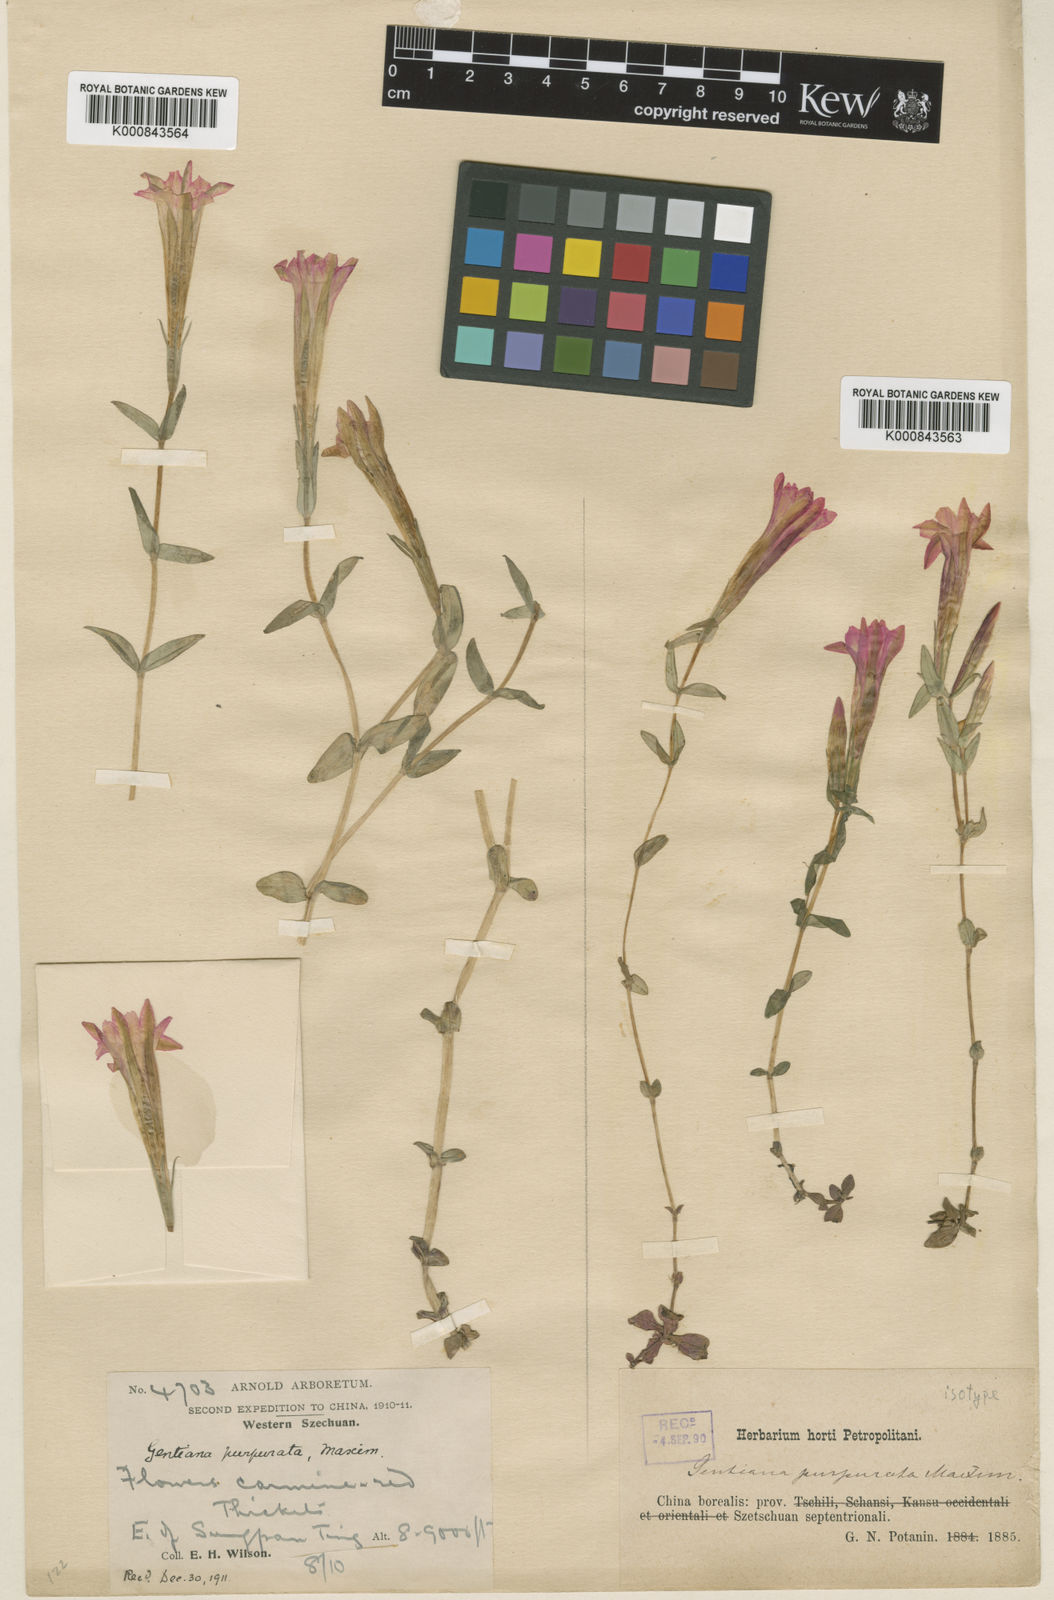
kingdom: Plantae
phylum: Tracheophyta
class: Magnoliopsida
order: Gentianales
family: Gentianaceae
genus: Gentiana
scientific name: Gentiana rubicunda
